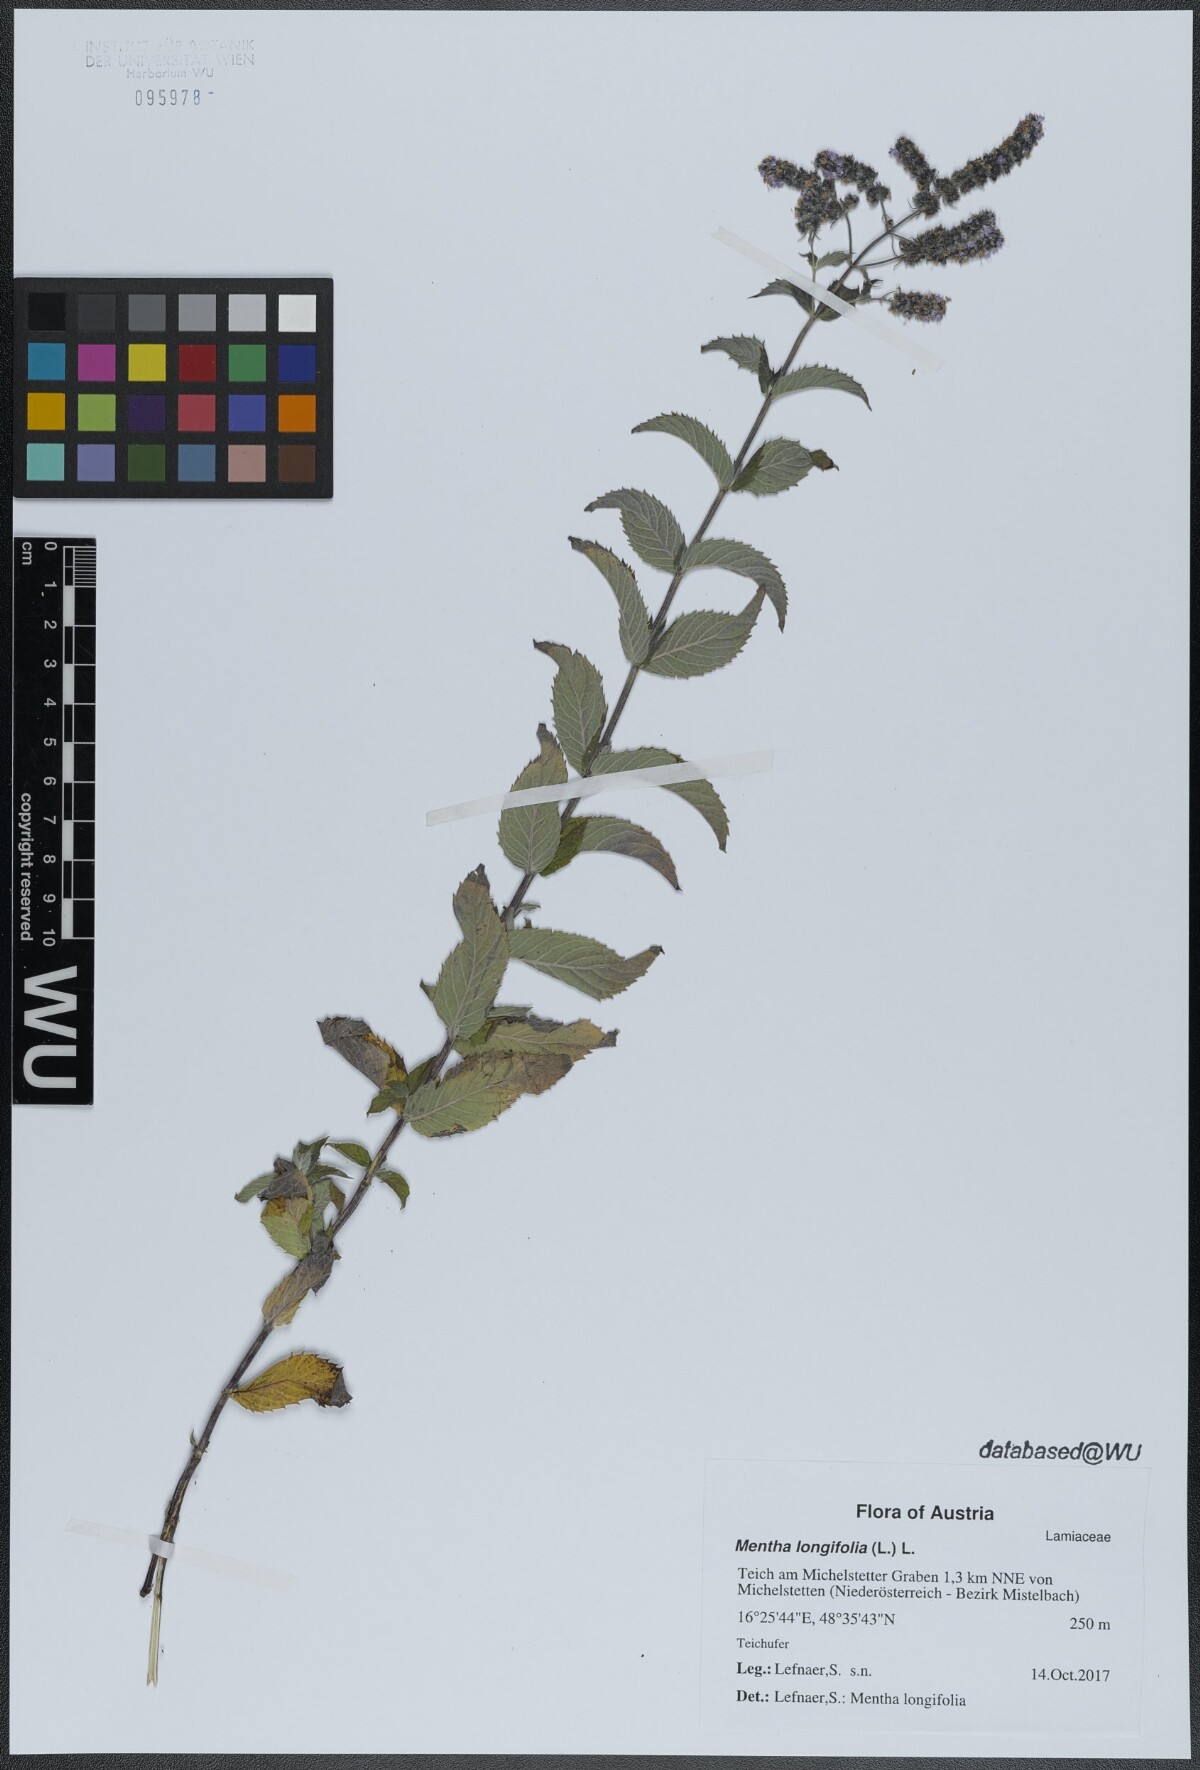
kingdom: Plantae
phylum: Tracheophyta
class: Magnoliopsida
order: Lamiales
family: Lamiaceae
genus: Mentha
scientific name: Mentha longifolia
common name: Horse mint
